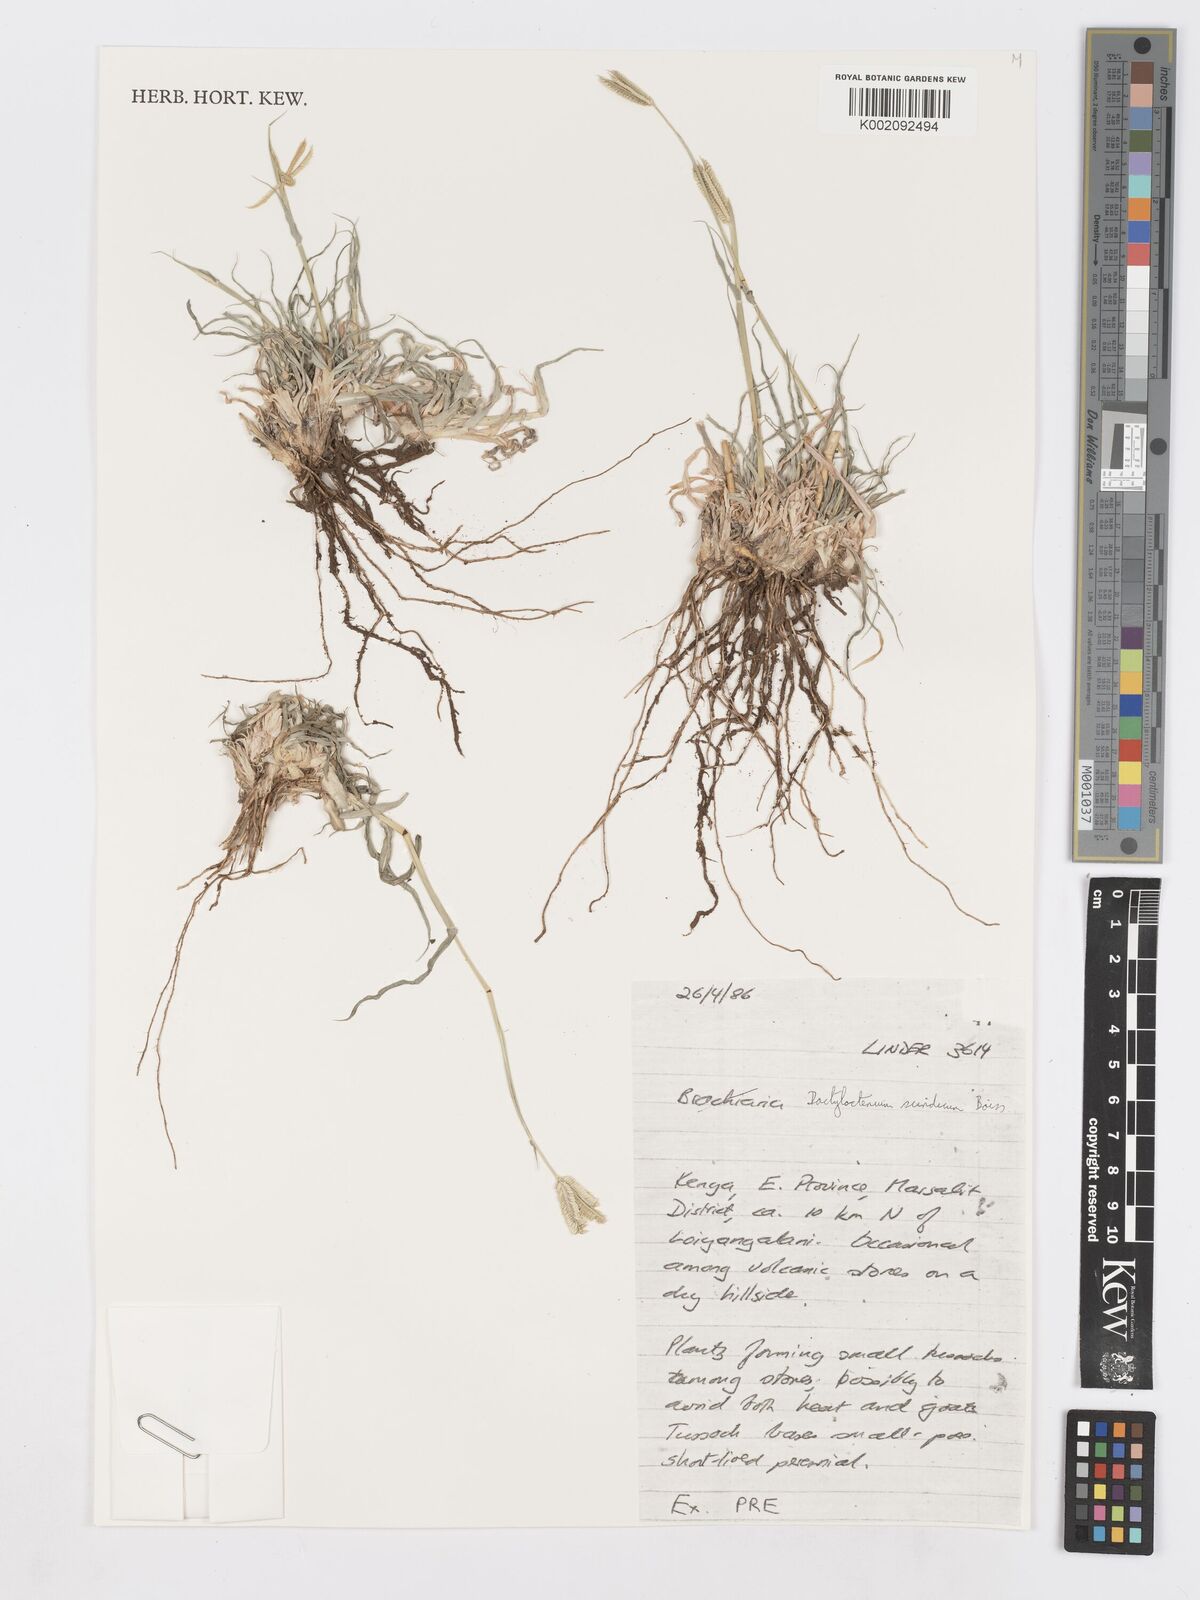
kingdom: Plantae
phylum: Tracheophyta
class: Liliopsida
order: Poales
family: Poaceae
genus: Dactyloctenium
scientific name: Dactyloctenium scindicum
